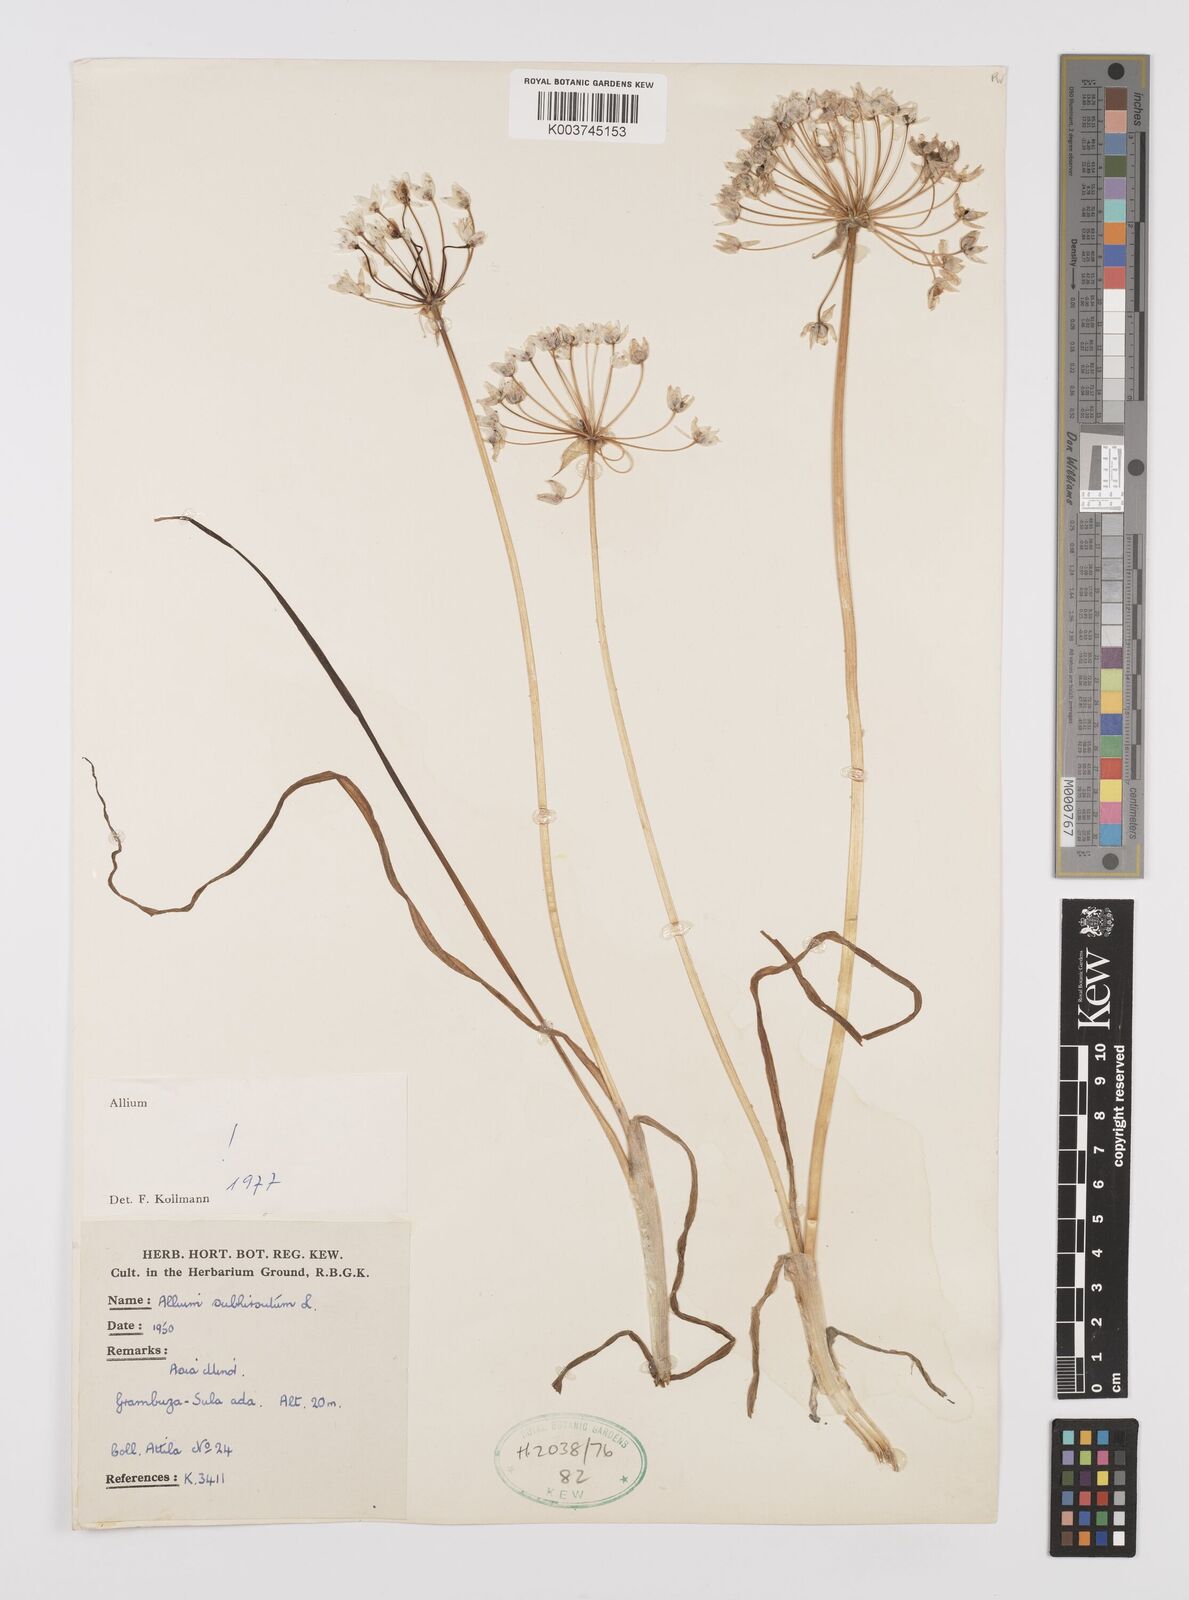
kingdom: Plantae
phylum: Tracheophyta
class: Liliopsida
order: Asparagales
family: Amaryllidaceae
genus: Allium
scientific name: Allium subhirsutum
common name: Hairy garlic
